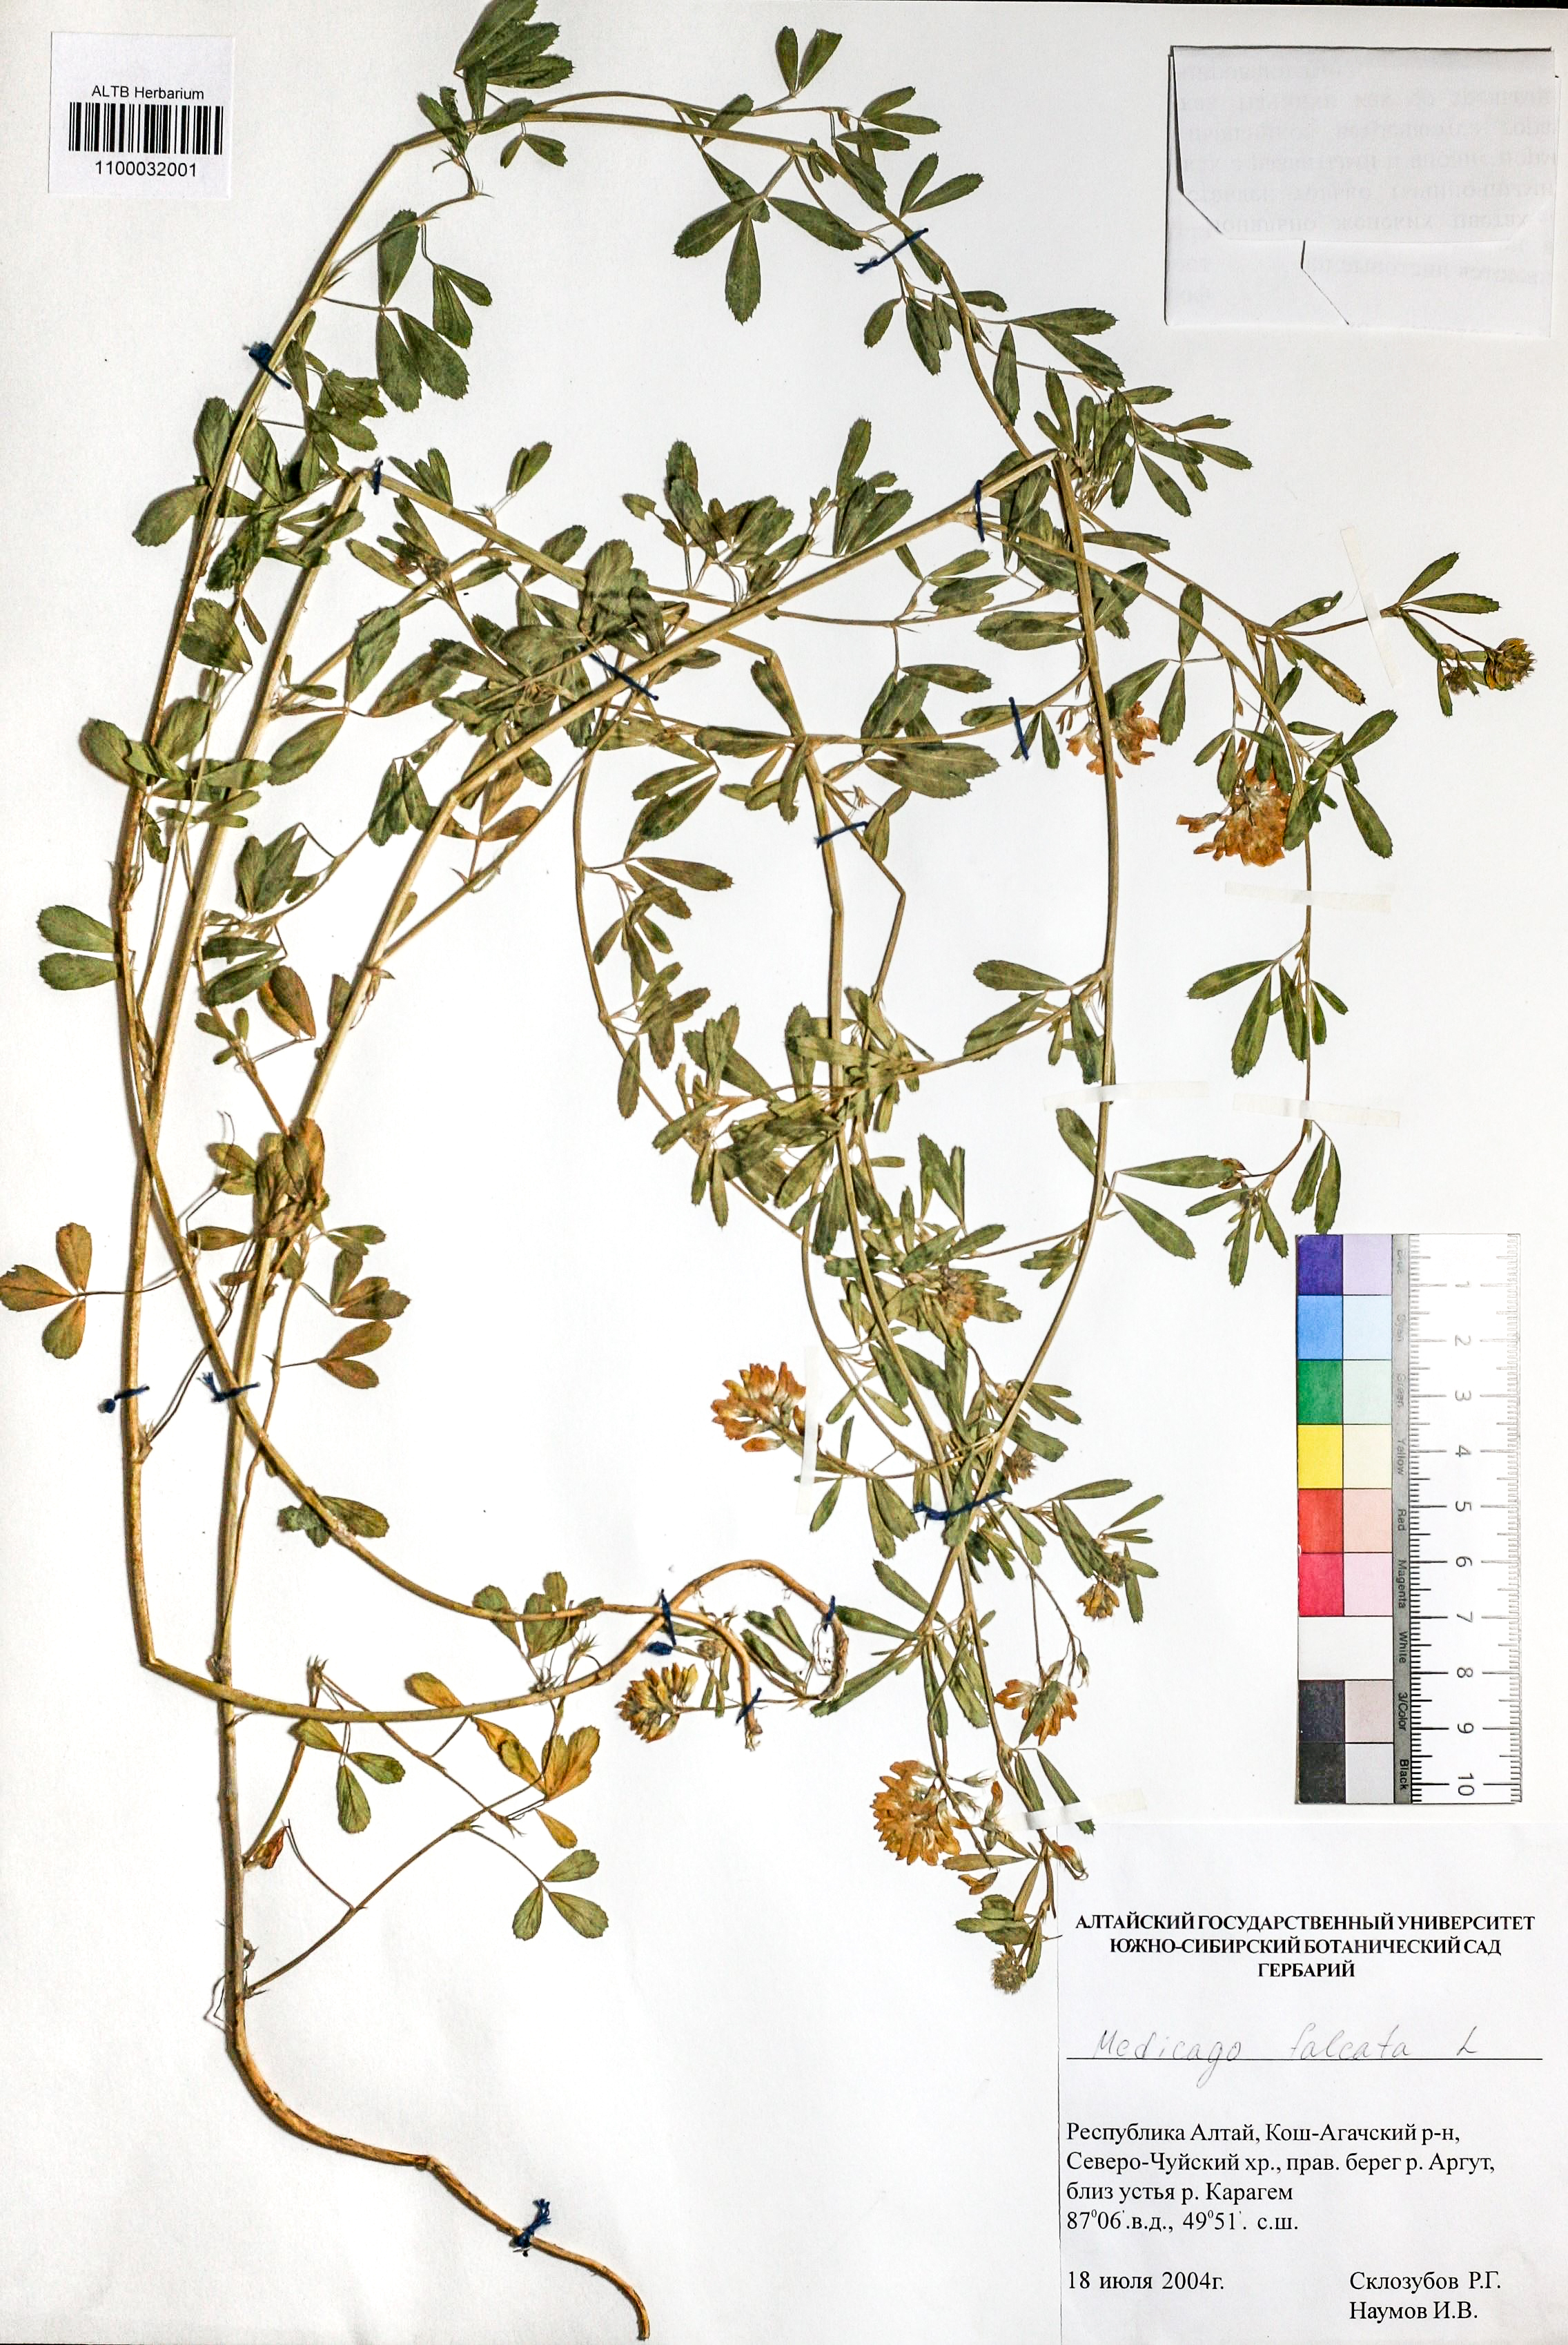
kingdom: Plantae
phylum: Tracheophyta
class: Magnoliopsida
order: Fabales
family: Fabaceae
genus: Medicago
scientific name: Medicago falcata
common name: Sickle medick
